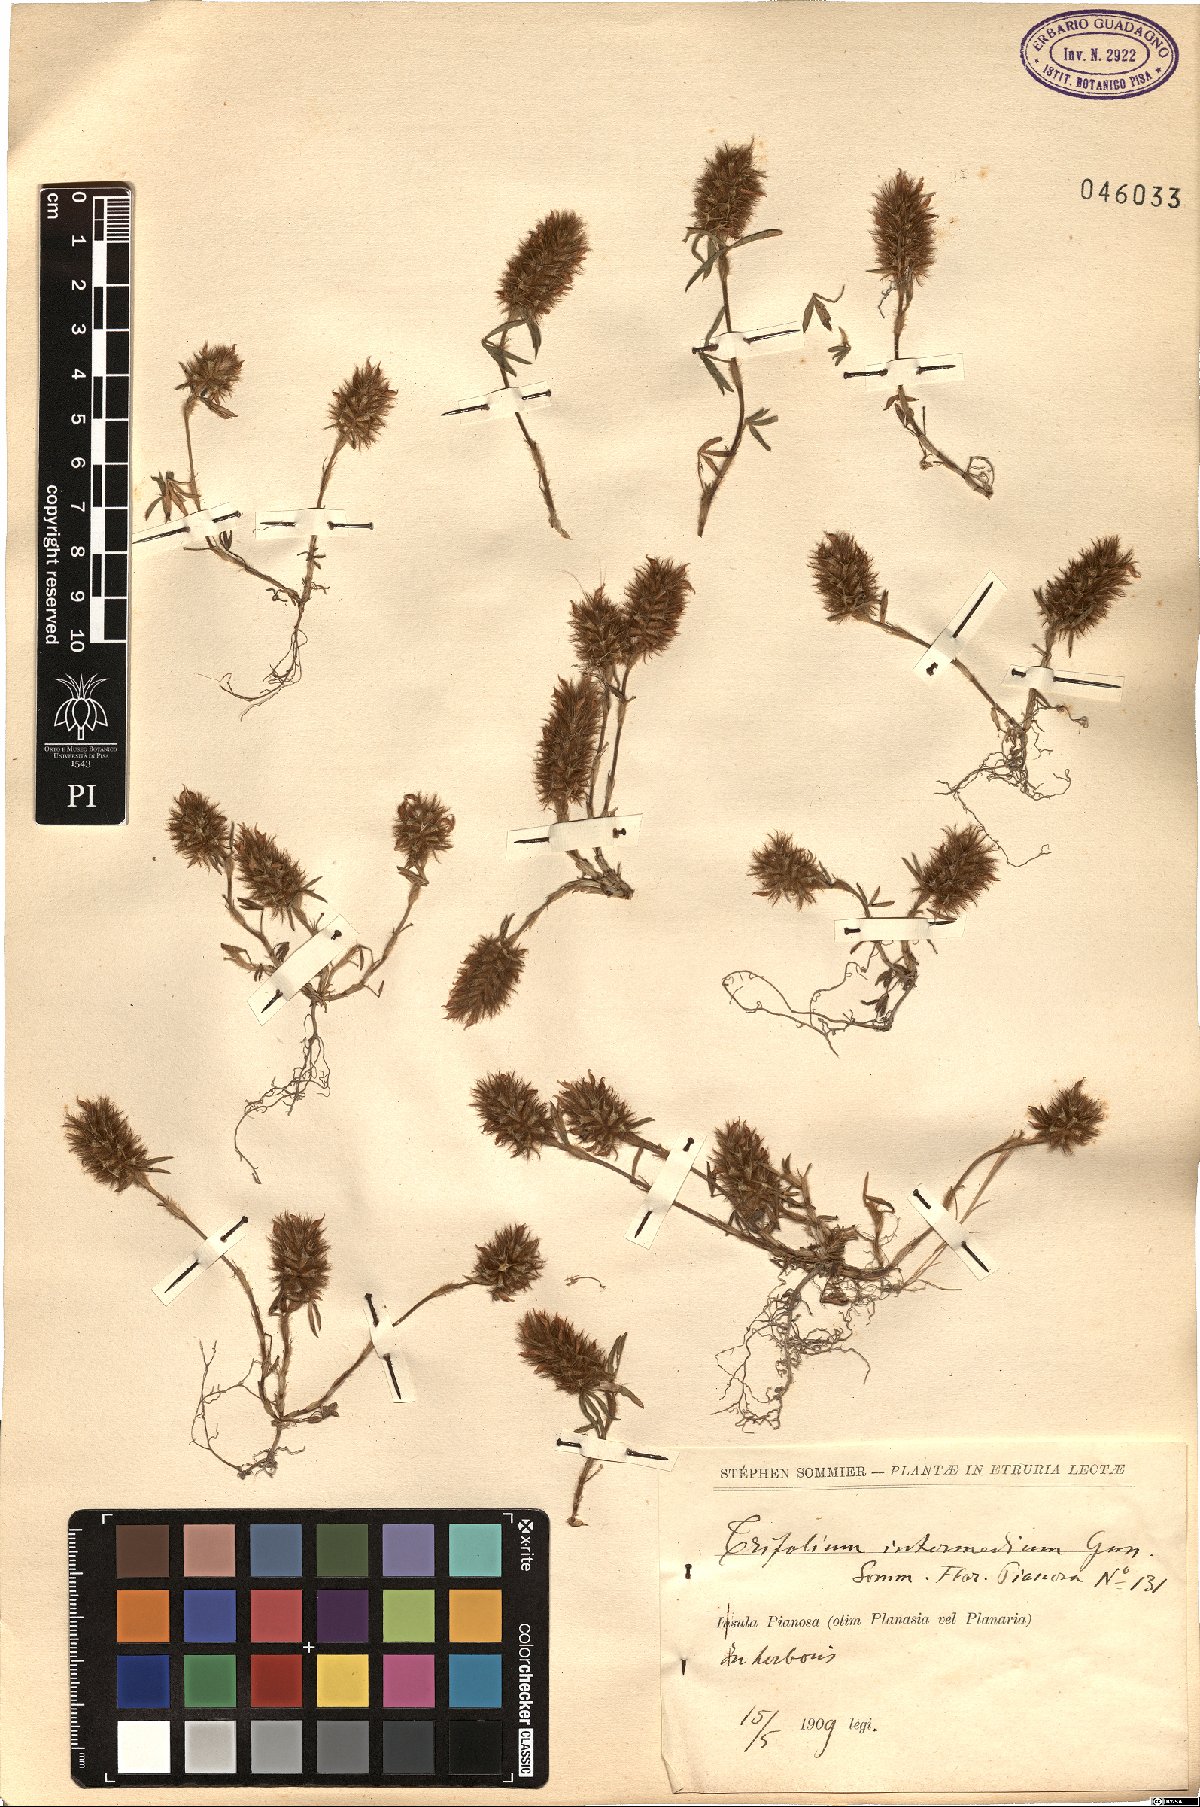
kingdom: Plantae
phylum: Tracheophyta
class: Magnoliopsida
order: Fabales
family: Fabaceae
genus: Trifolium
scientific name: Trifolium infamia-ponertii
